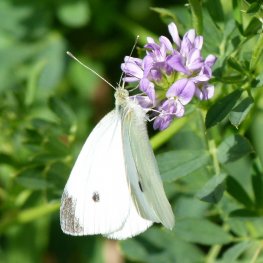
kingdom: Animalia
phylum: Arthropoda
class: Insecta
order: Lepidoptera
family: Pieridae
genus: Pieris
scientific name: Pieris rapae
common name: Cabbage White
